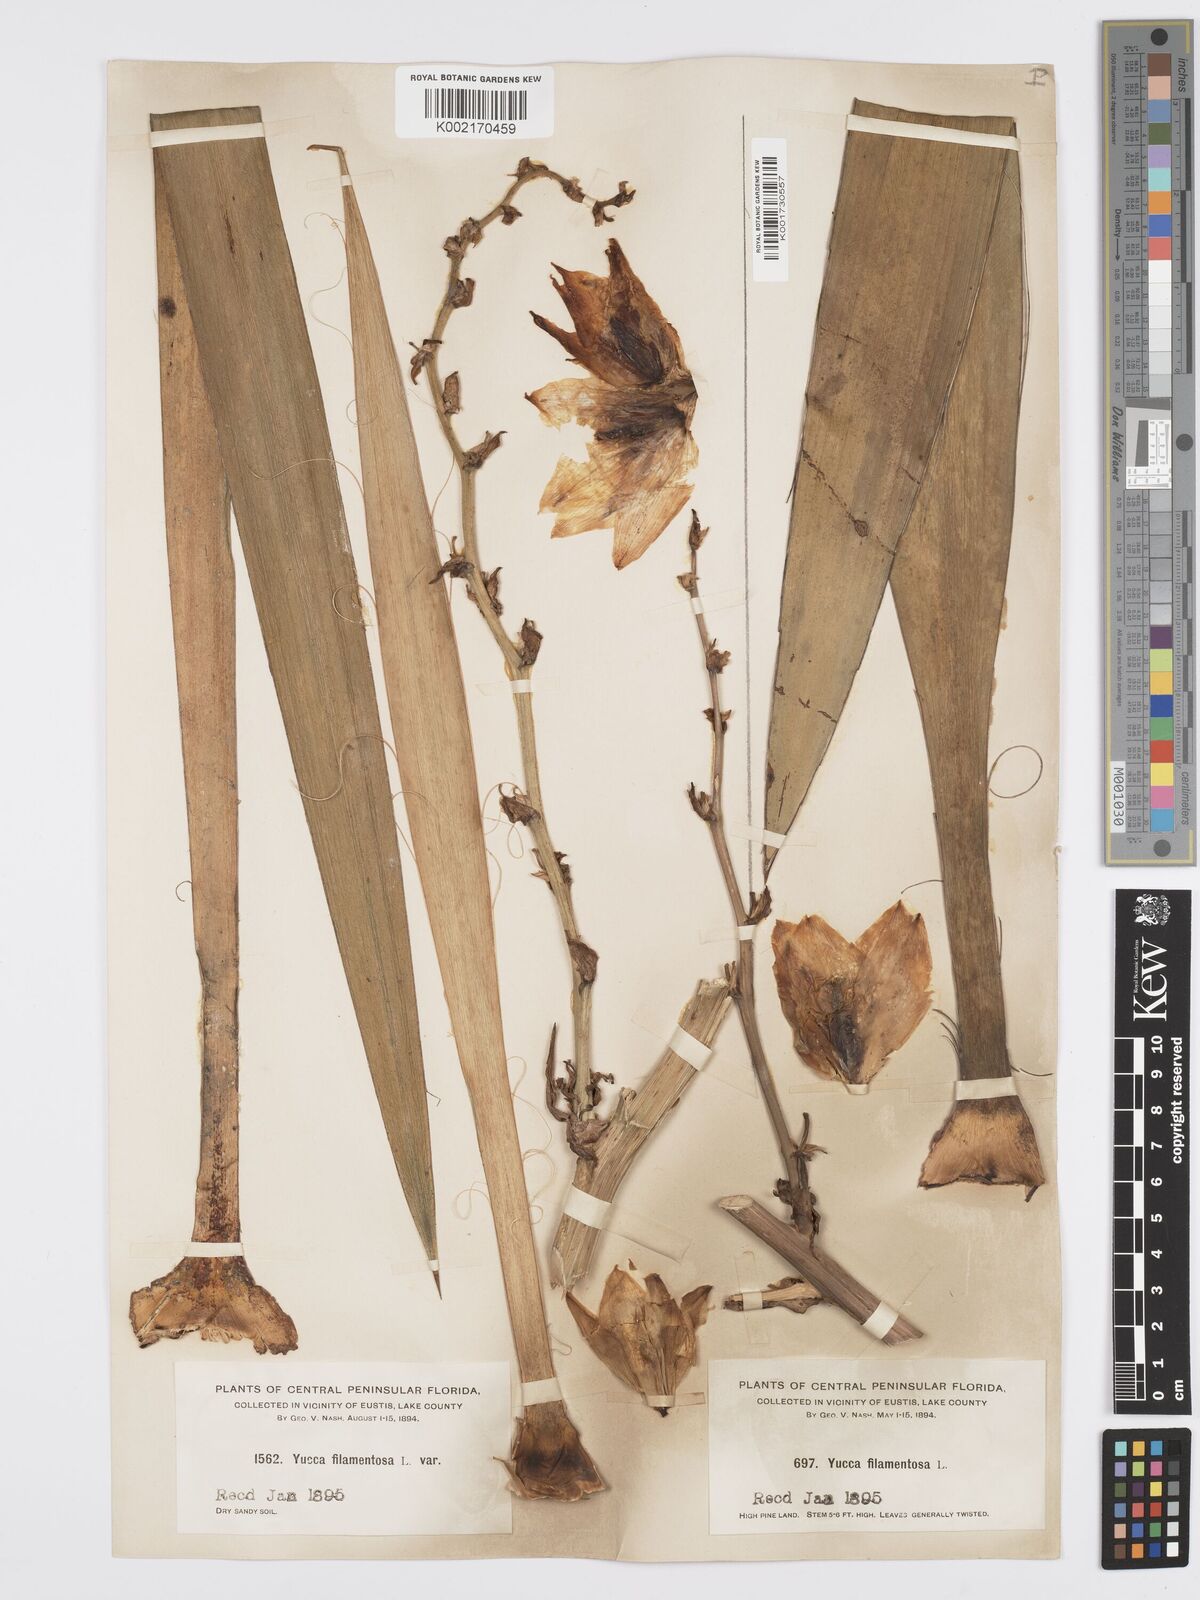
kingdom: Plantae
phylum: Tracheophyta
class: Liliopsida
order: Asparagales
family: Asparagaceae
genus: Yucca
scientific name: Yucca filamentosa
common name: Adam's-needle
